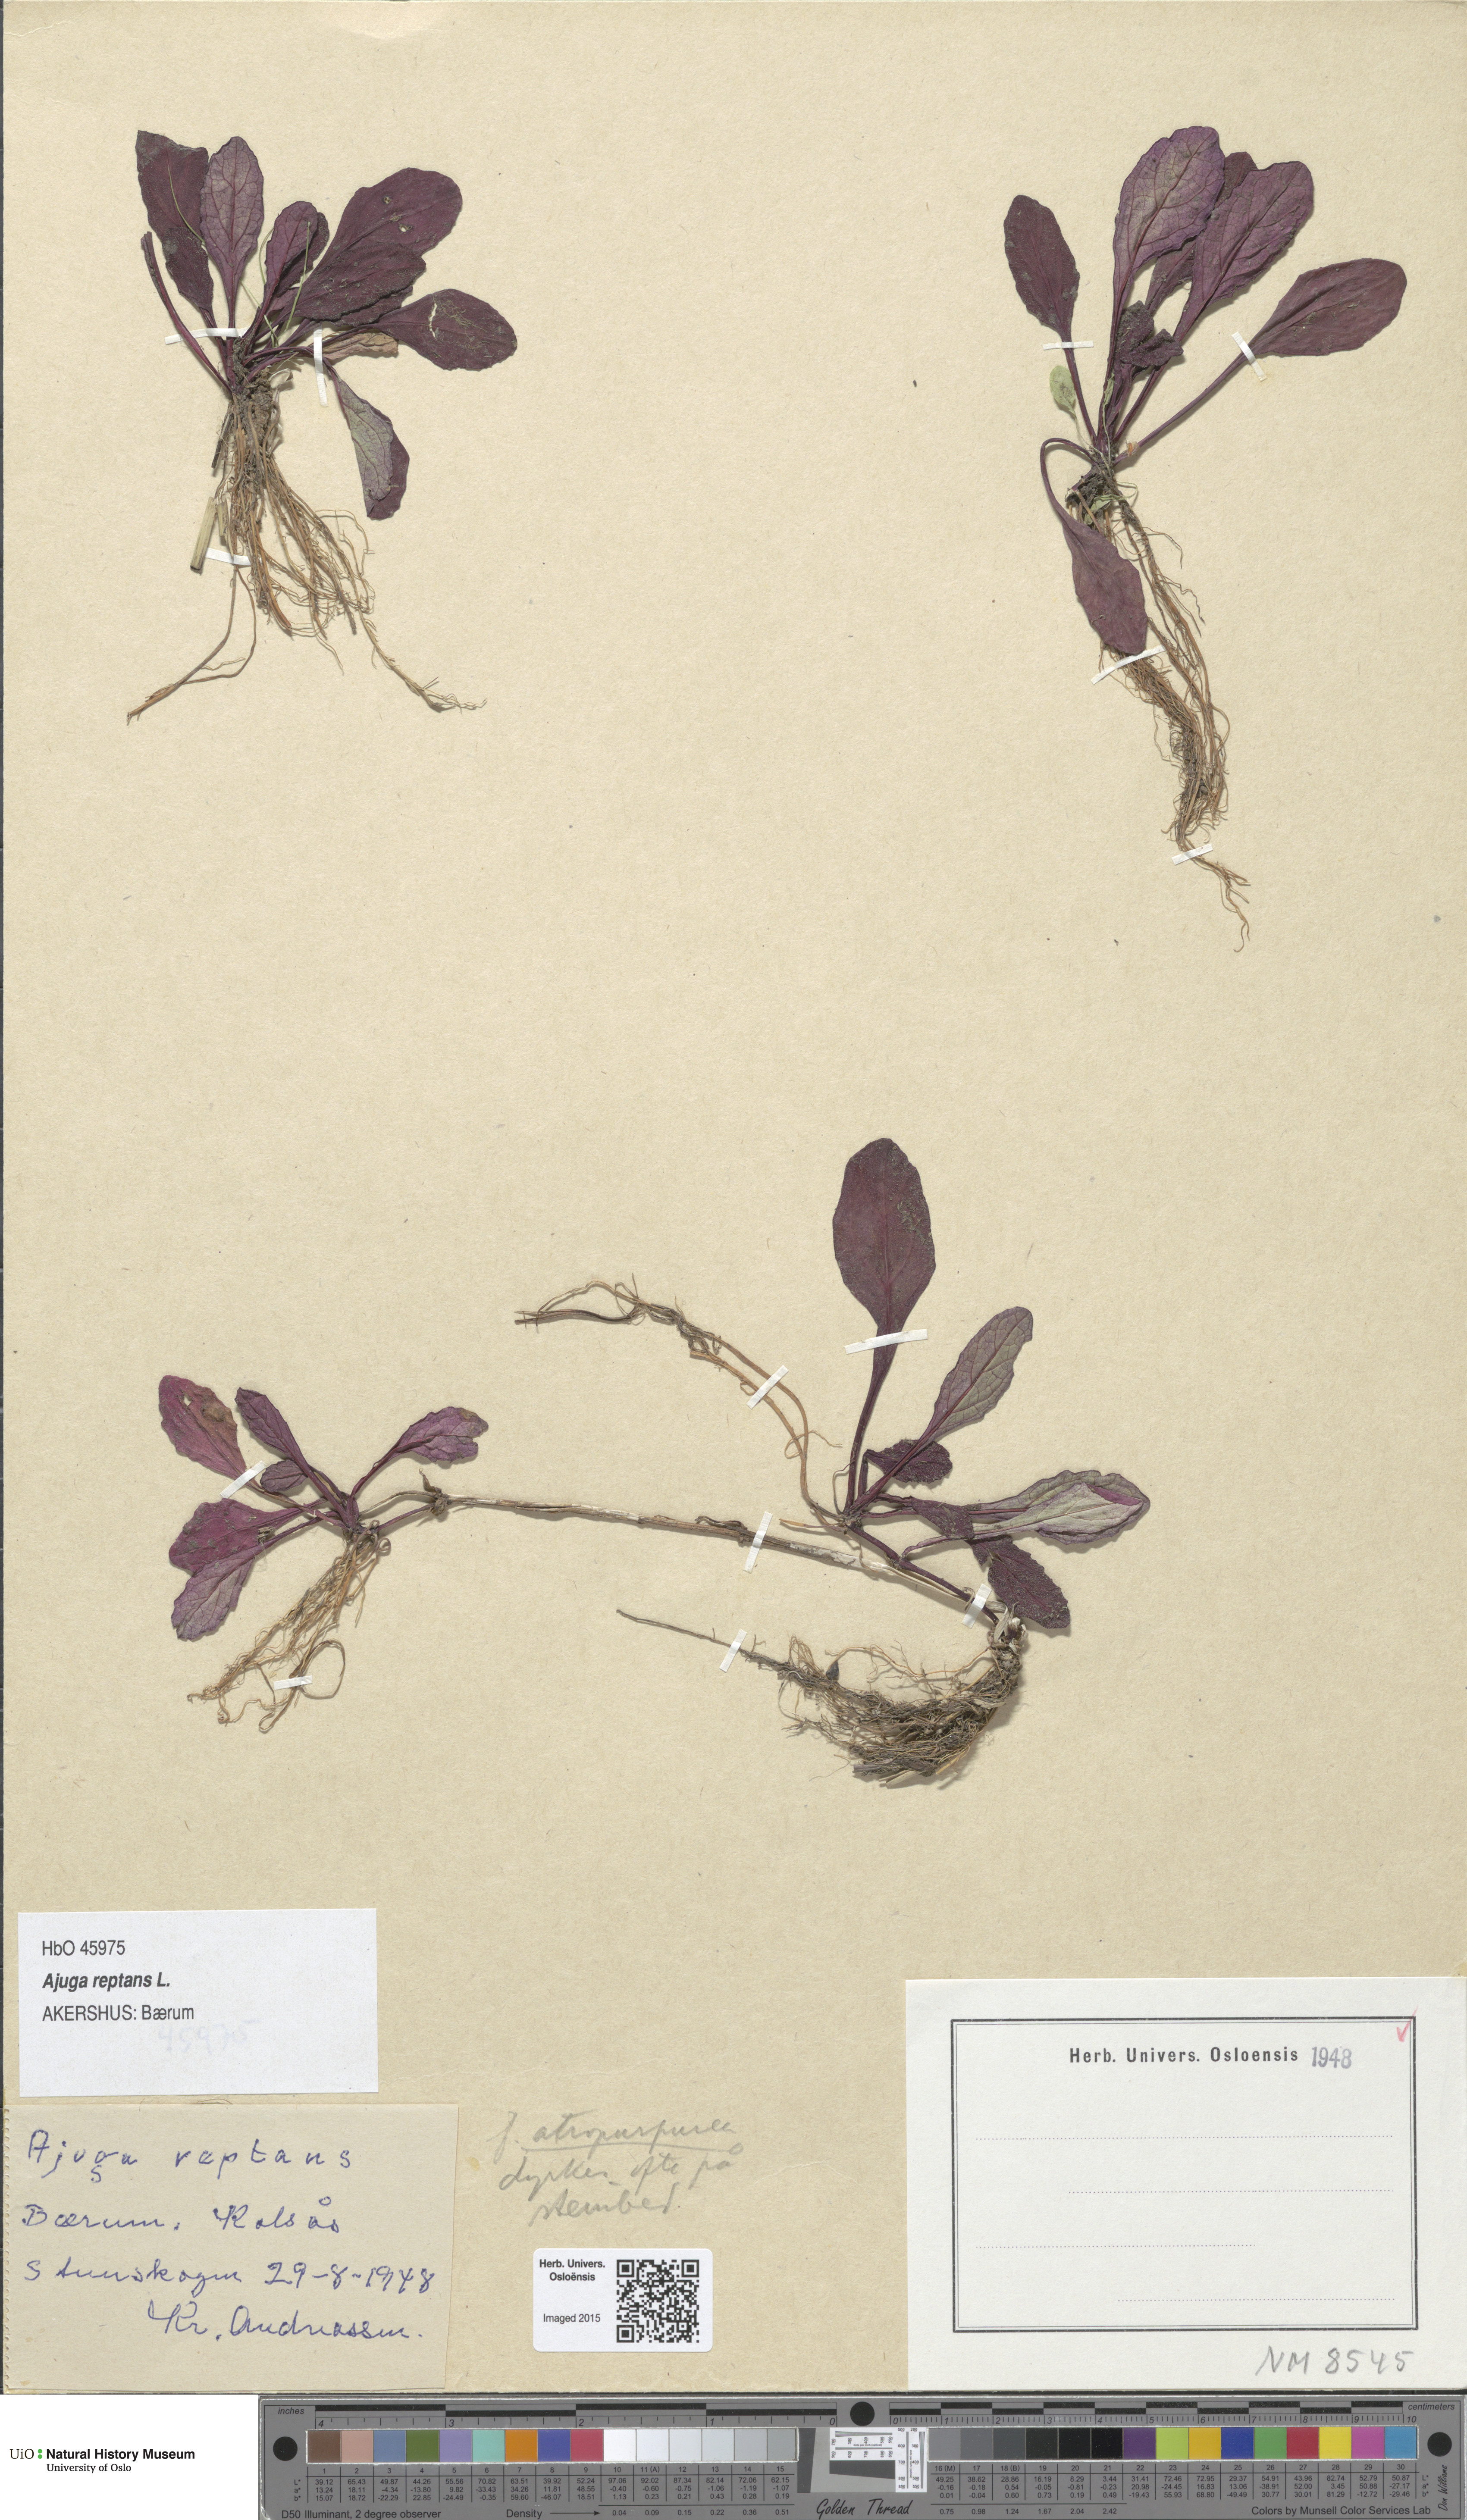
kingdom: Plantae
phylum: Tracheophyta
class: Magnoliopsida
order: Lamiales
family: Lamiaceae
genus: Ajuga
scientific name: Ajuga reptans
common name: Bugle
